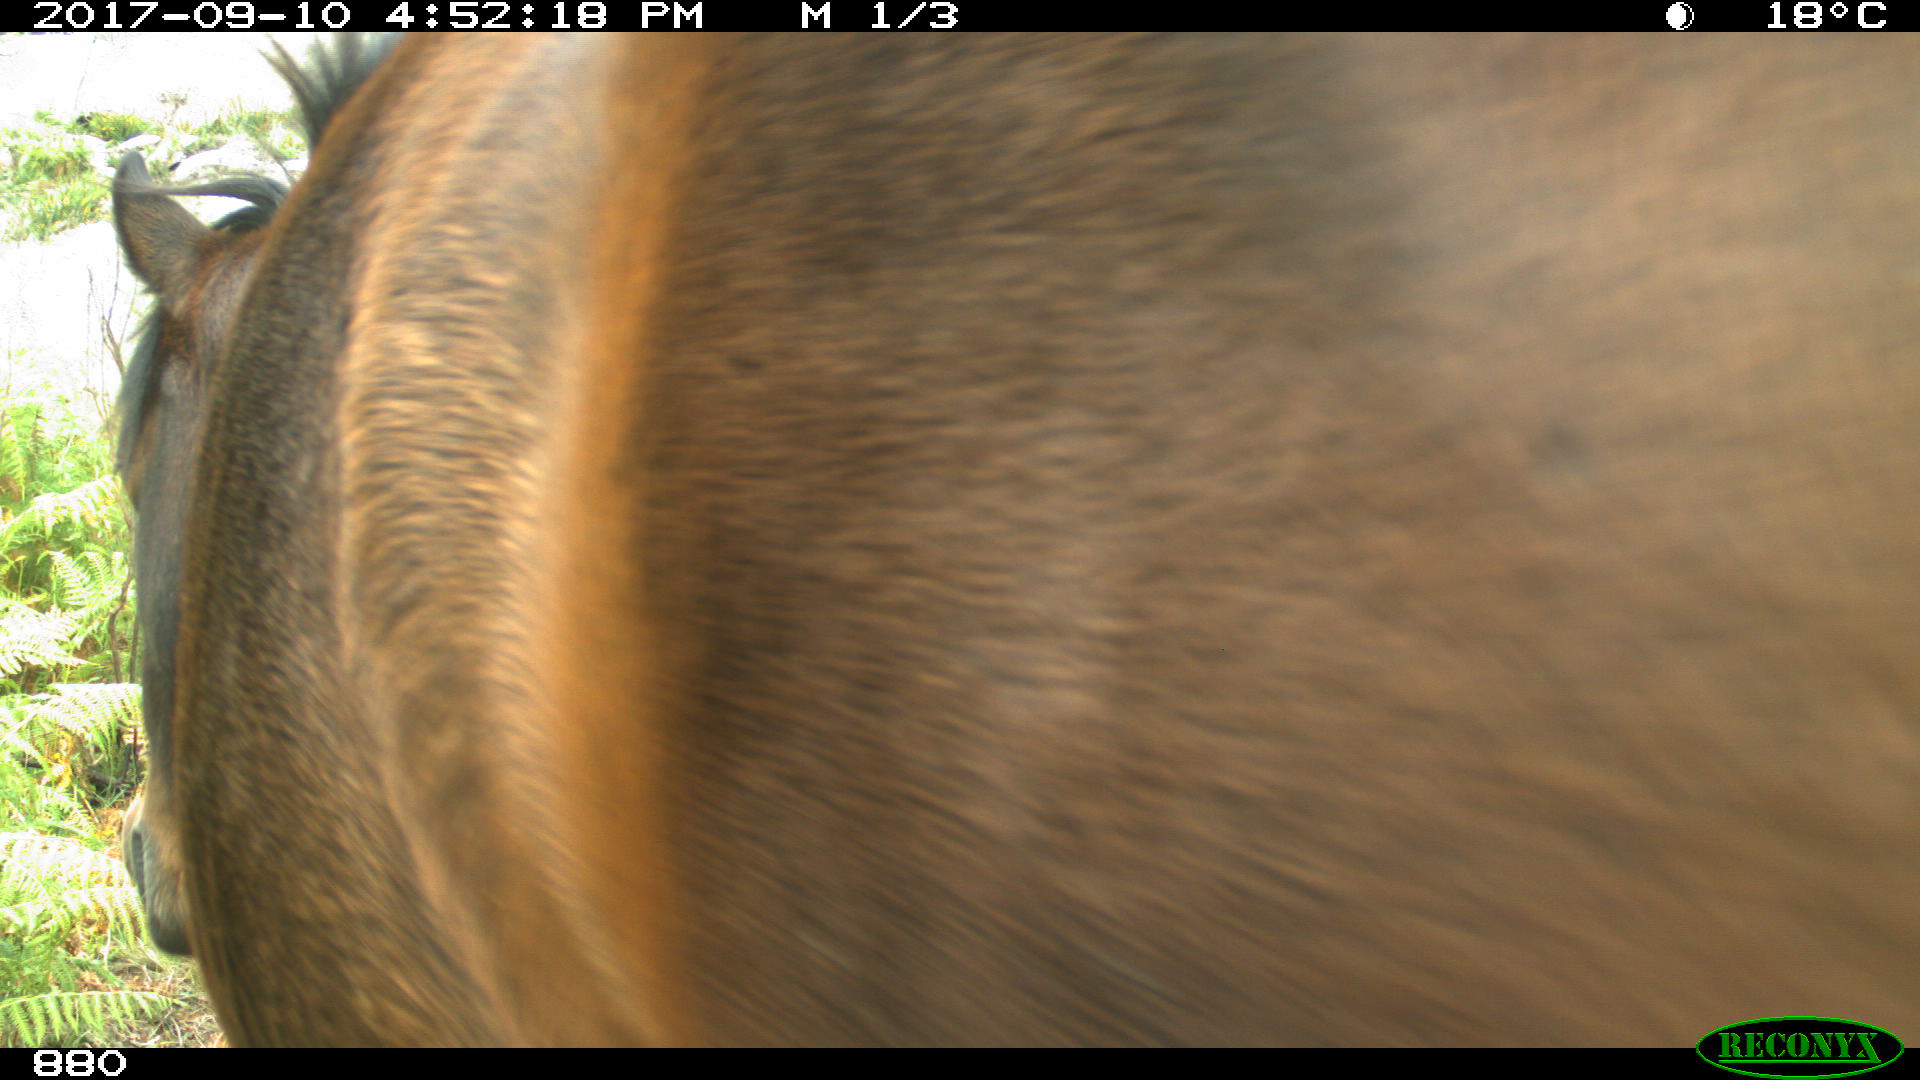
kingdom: Animalia
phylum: Chordata
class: Mammalia
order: Perissodactyla
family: Equidae
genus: Equus
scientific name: Equus caballus
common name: Horse
